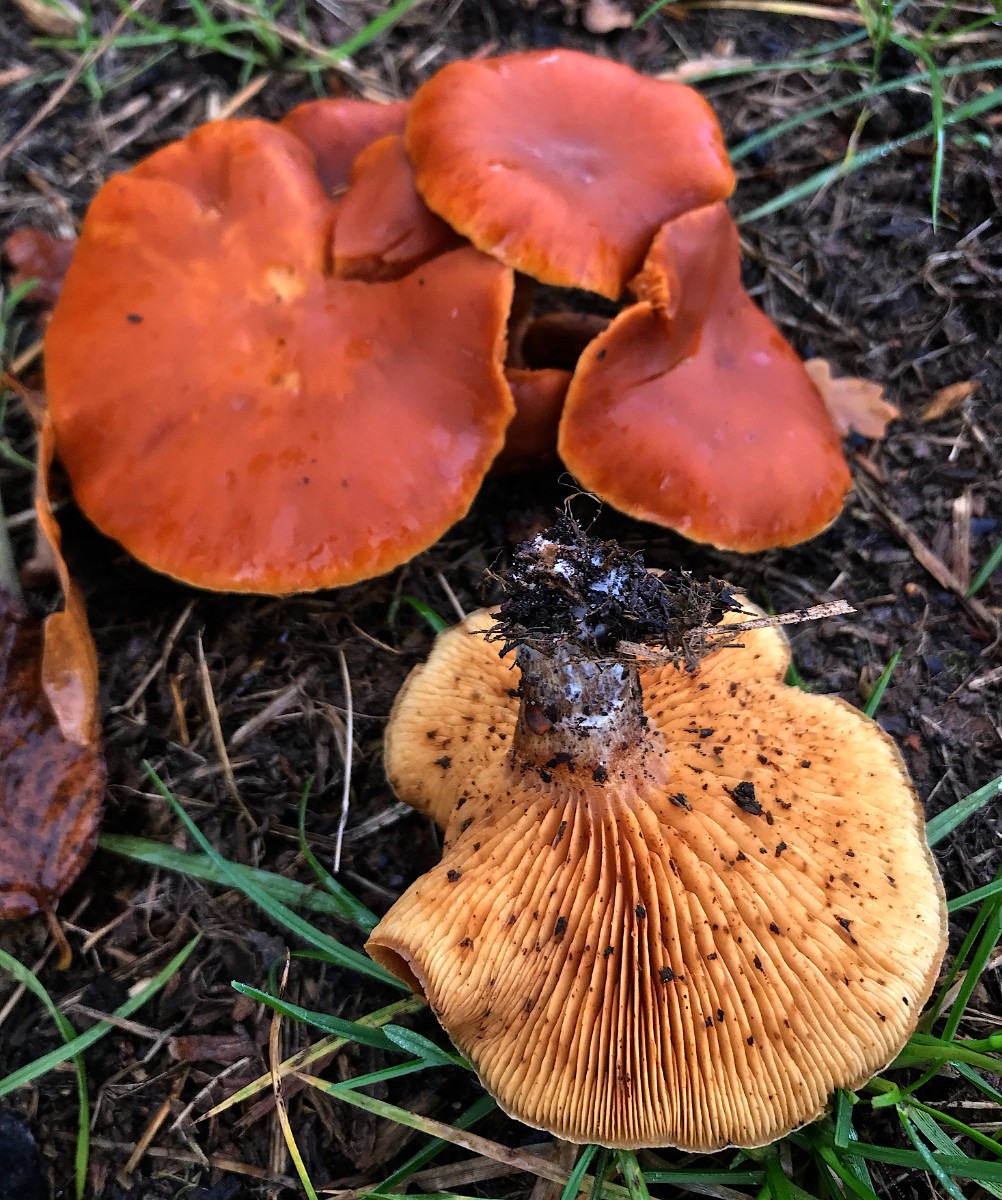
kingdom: Fungi
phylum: Basidiomycota
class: Agaricomycetes
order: Agaricales
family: Hymenogastraceae
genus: Gymnopilus
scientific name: Gymnopilus penetrans
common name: plettet flammehat
